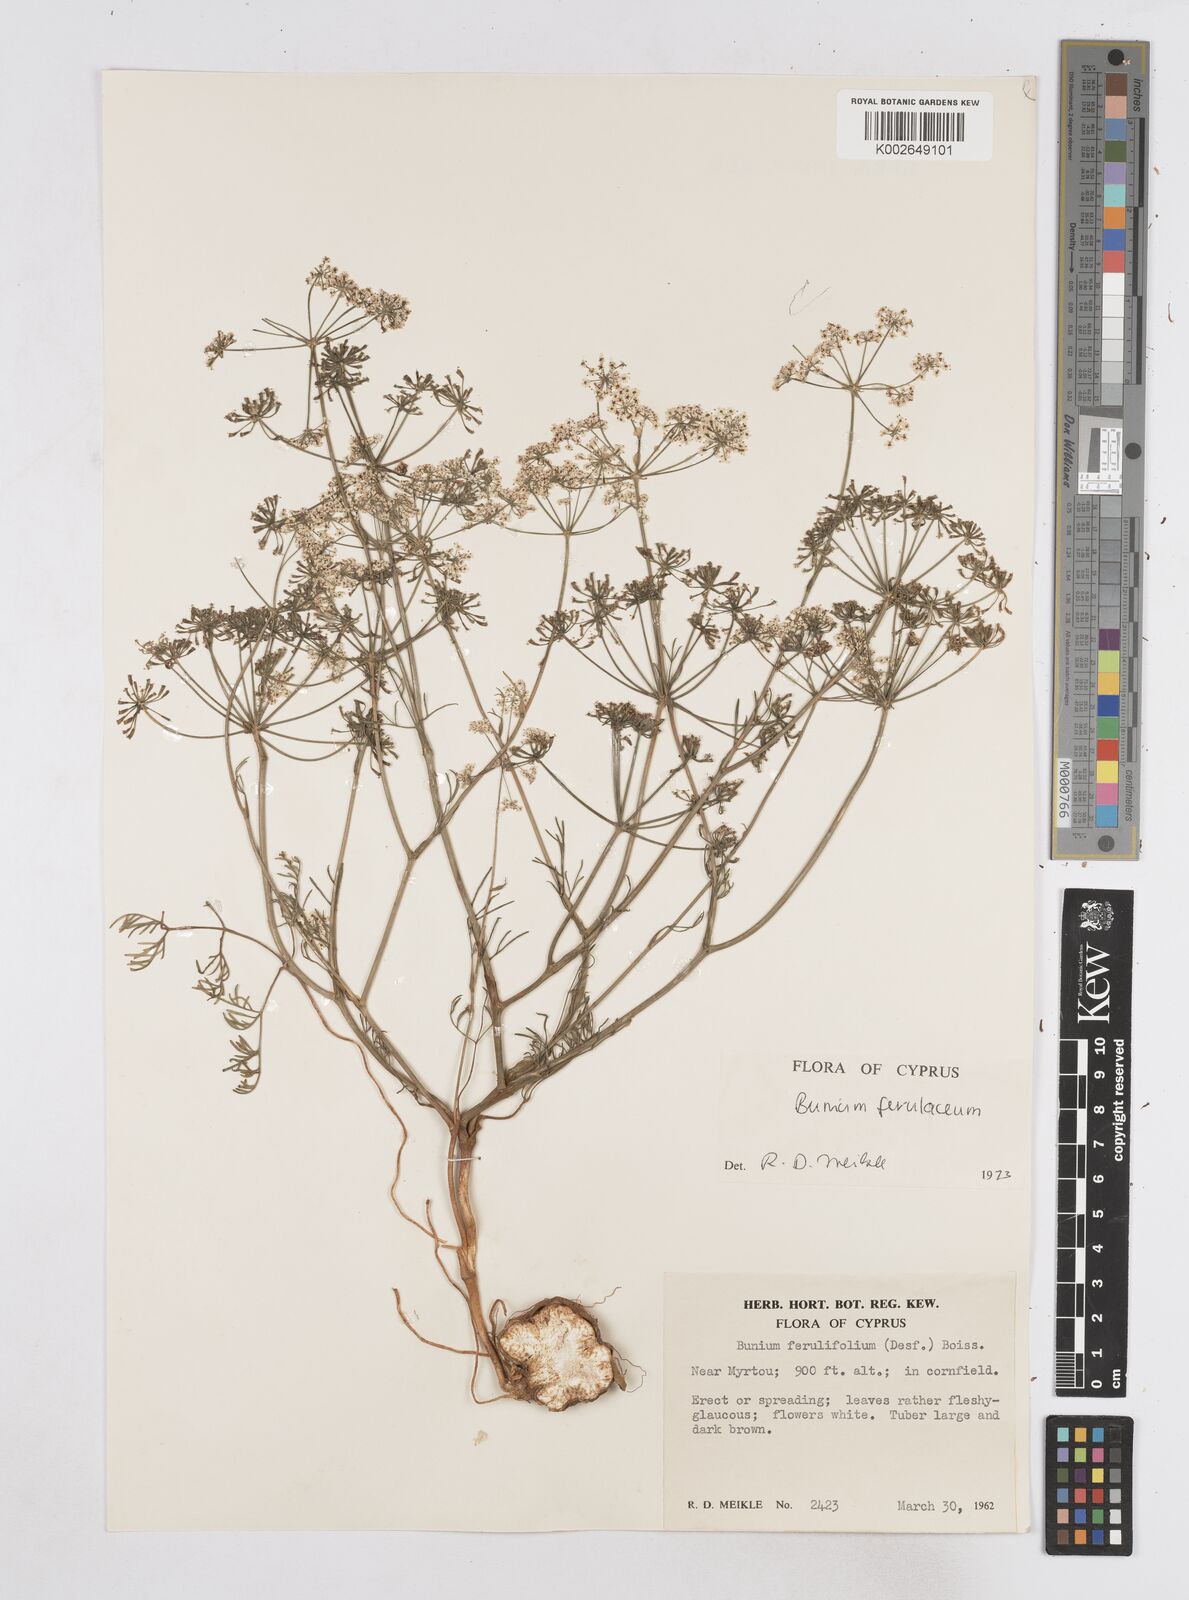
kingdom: Plantae
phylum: Tracheophyta
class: Magnoliopsida
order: Apiales
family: Apiaceae
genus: Bunium
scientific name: Bunium ferulaceum
